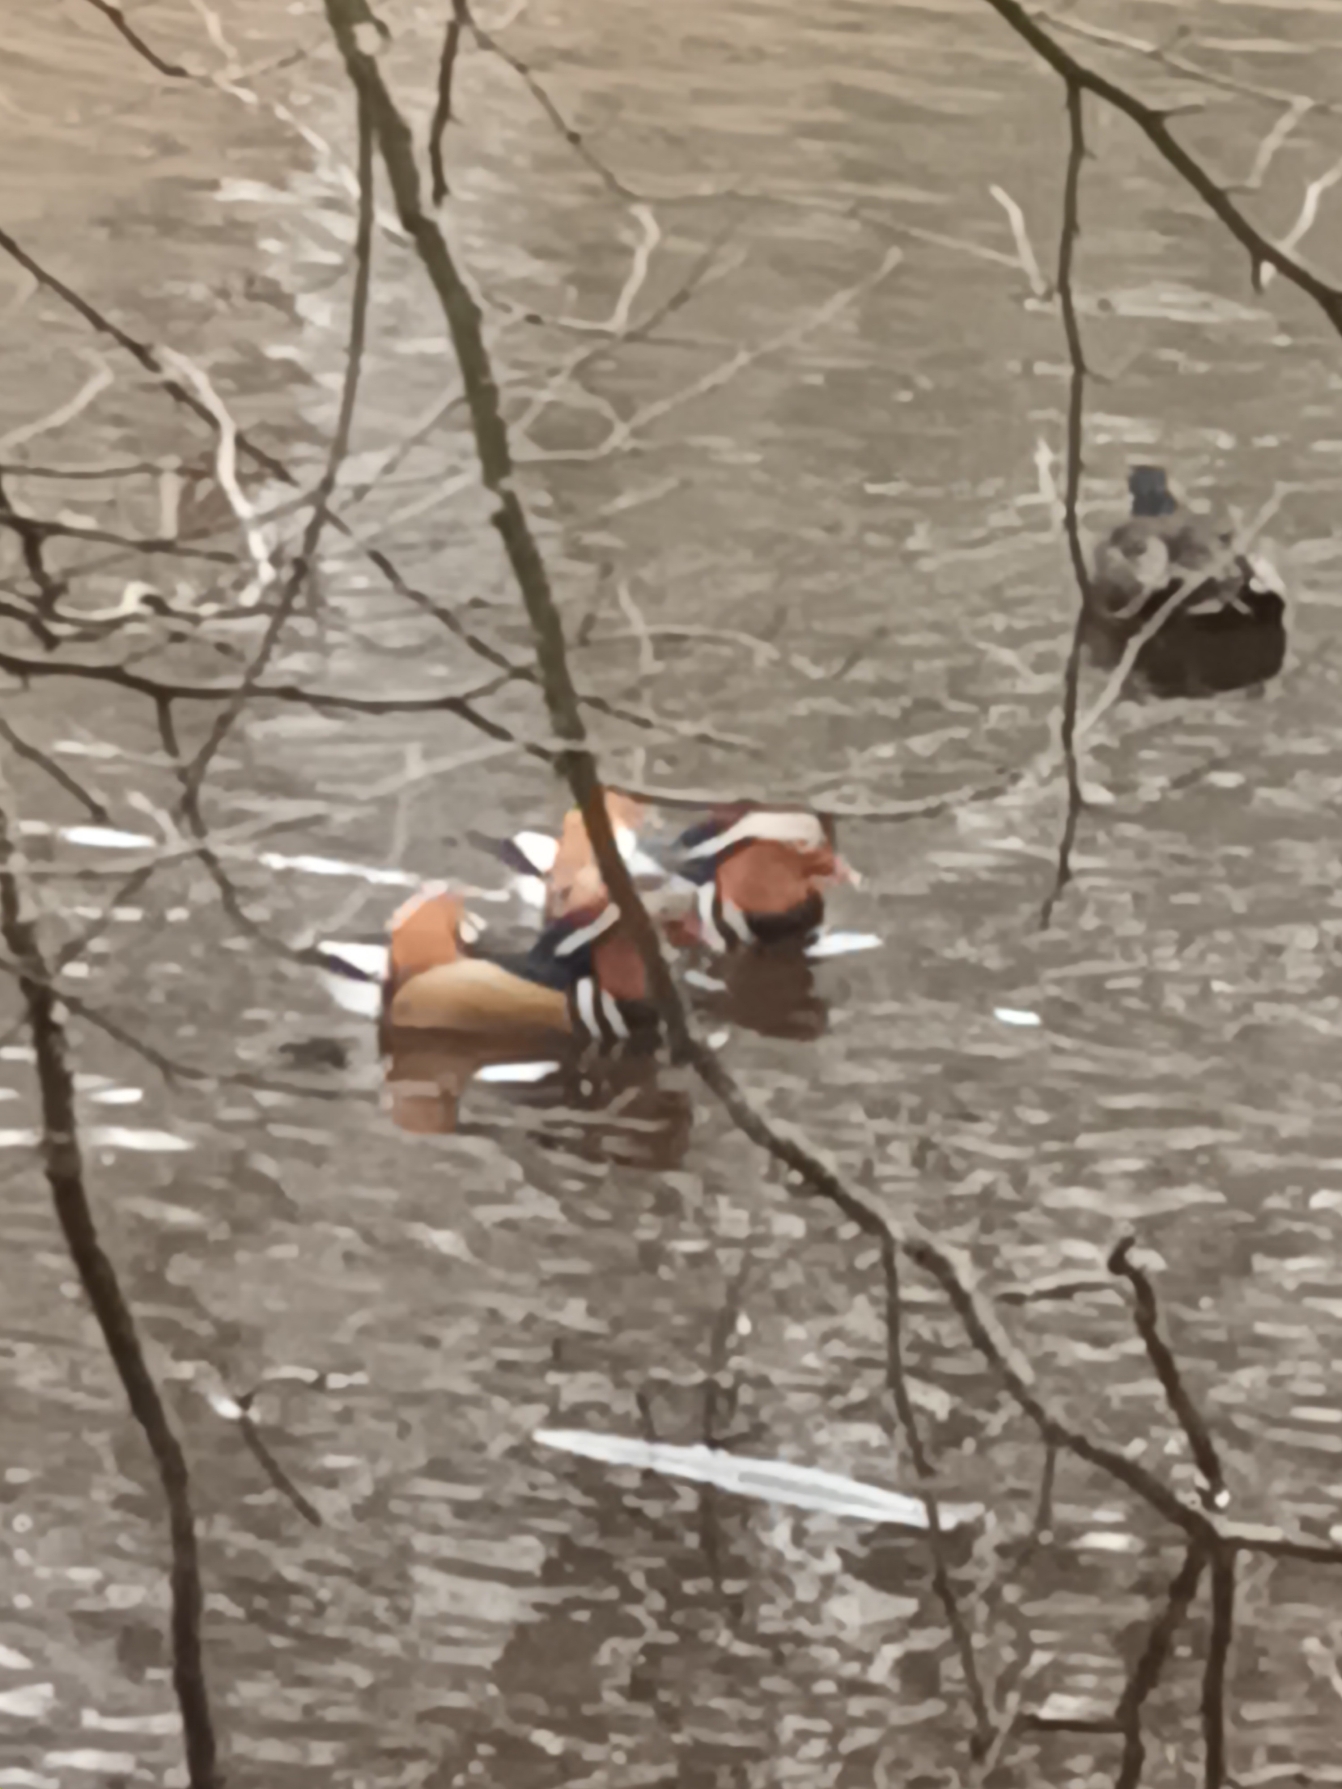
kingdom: Animalia
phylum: Chordata
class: Aves
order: Anseriformes
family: Anatidae
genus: Aix
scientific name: Aix galericulata
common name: Mandarinand
